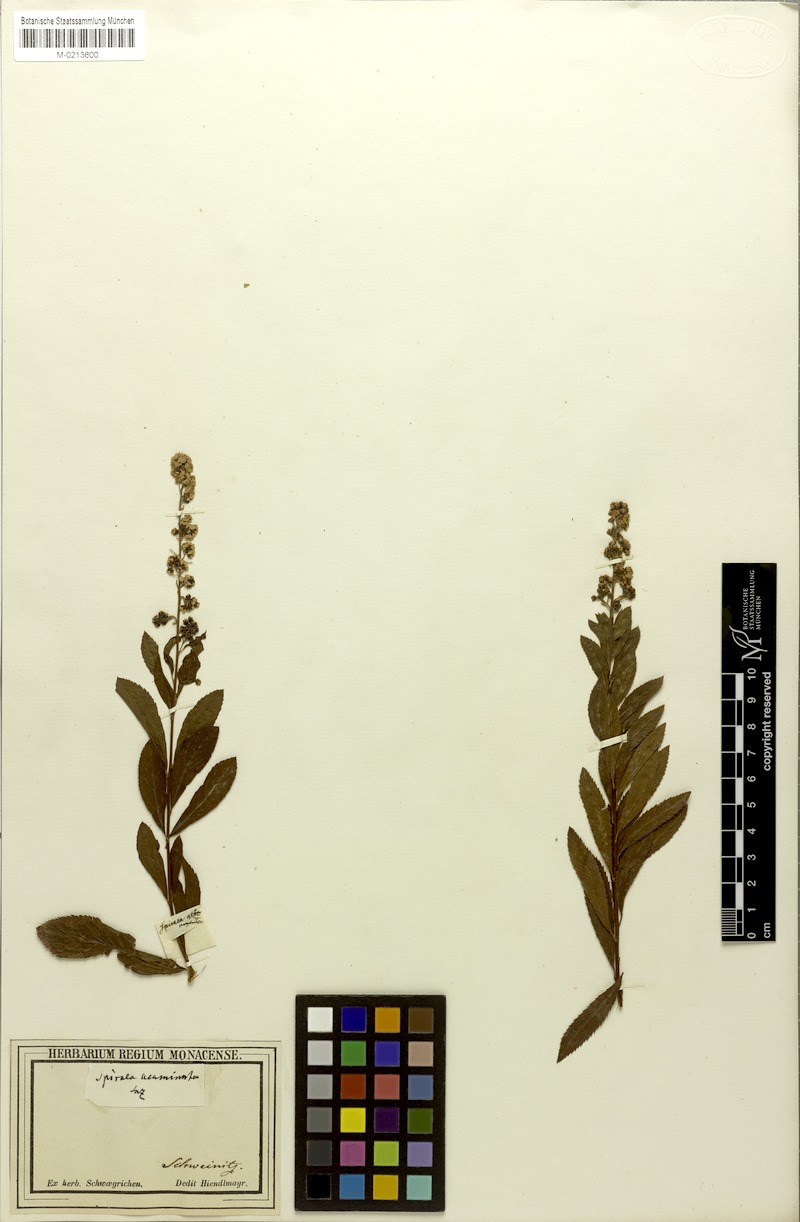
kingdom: Plantae
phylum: Tracheophyta
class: Magnoliopsida
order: Rosales
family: Rosaceae
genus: Spiraea
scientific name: Spiraea salicifolia
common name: Bridewort
